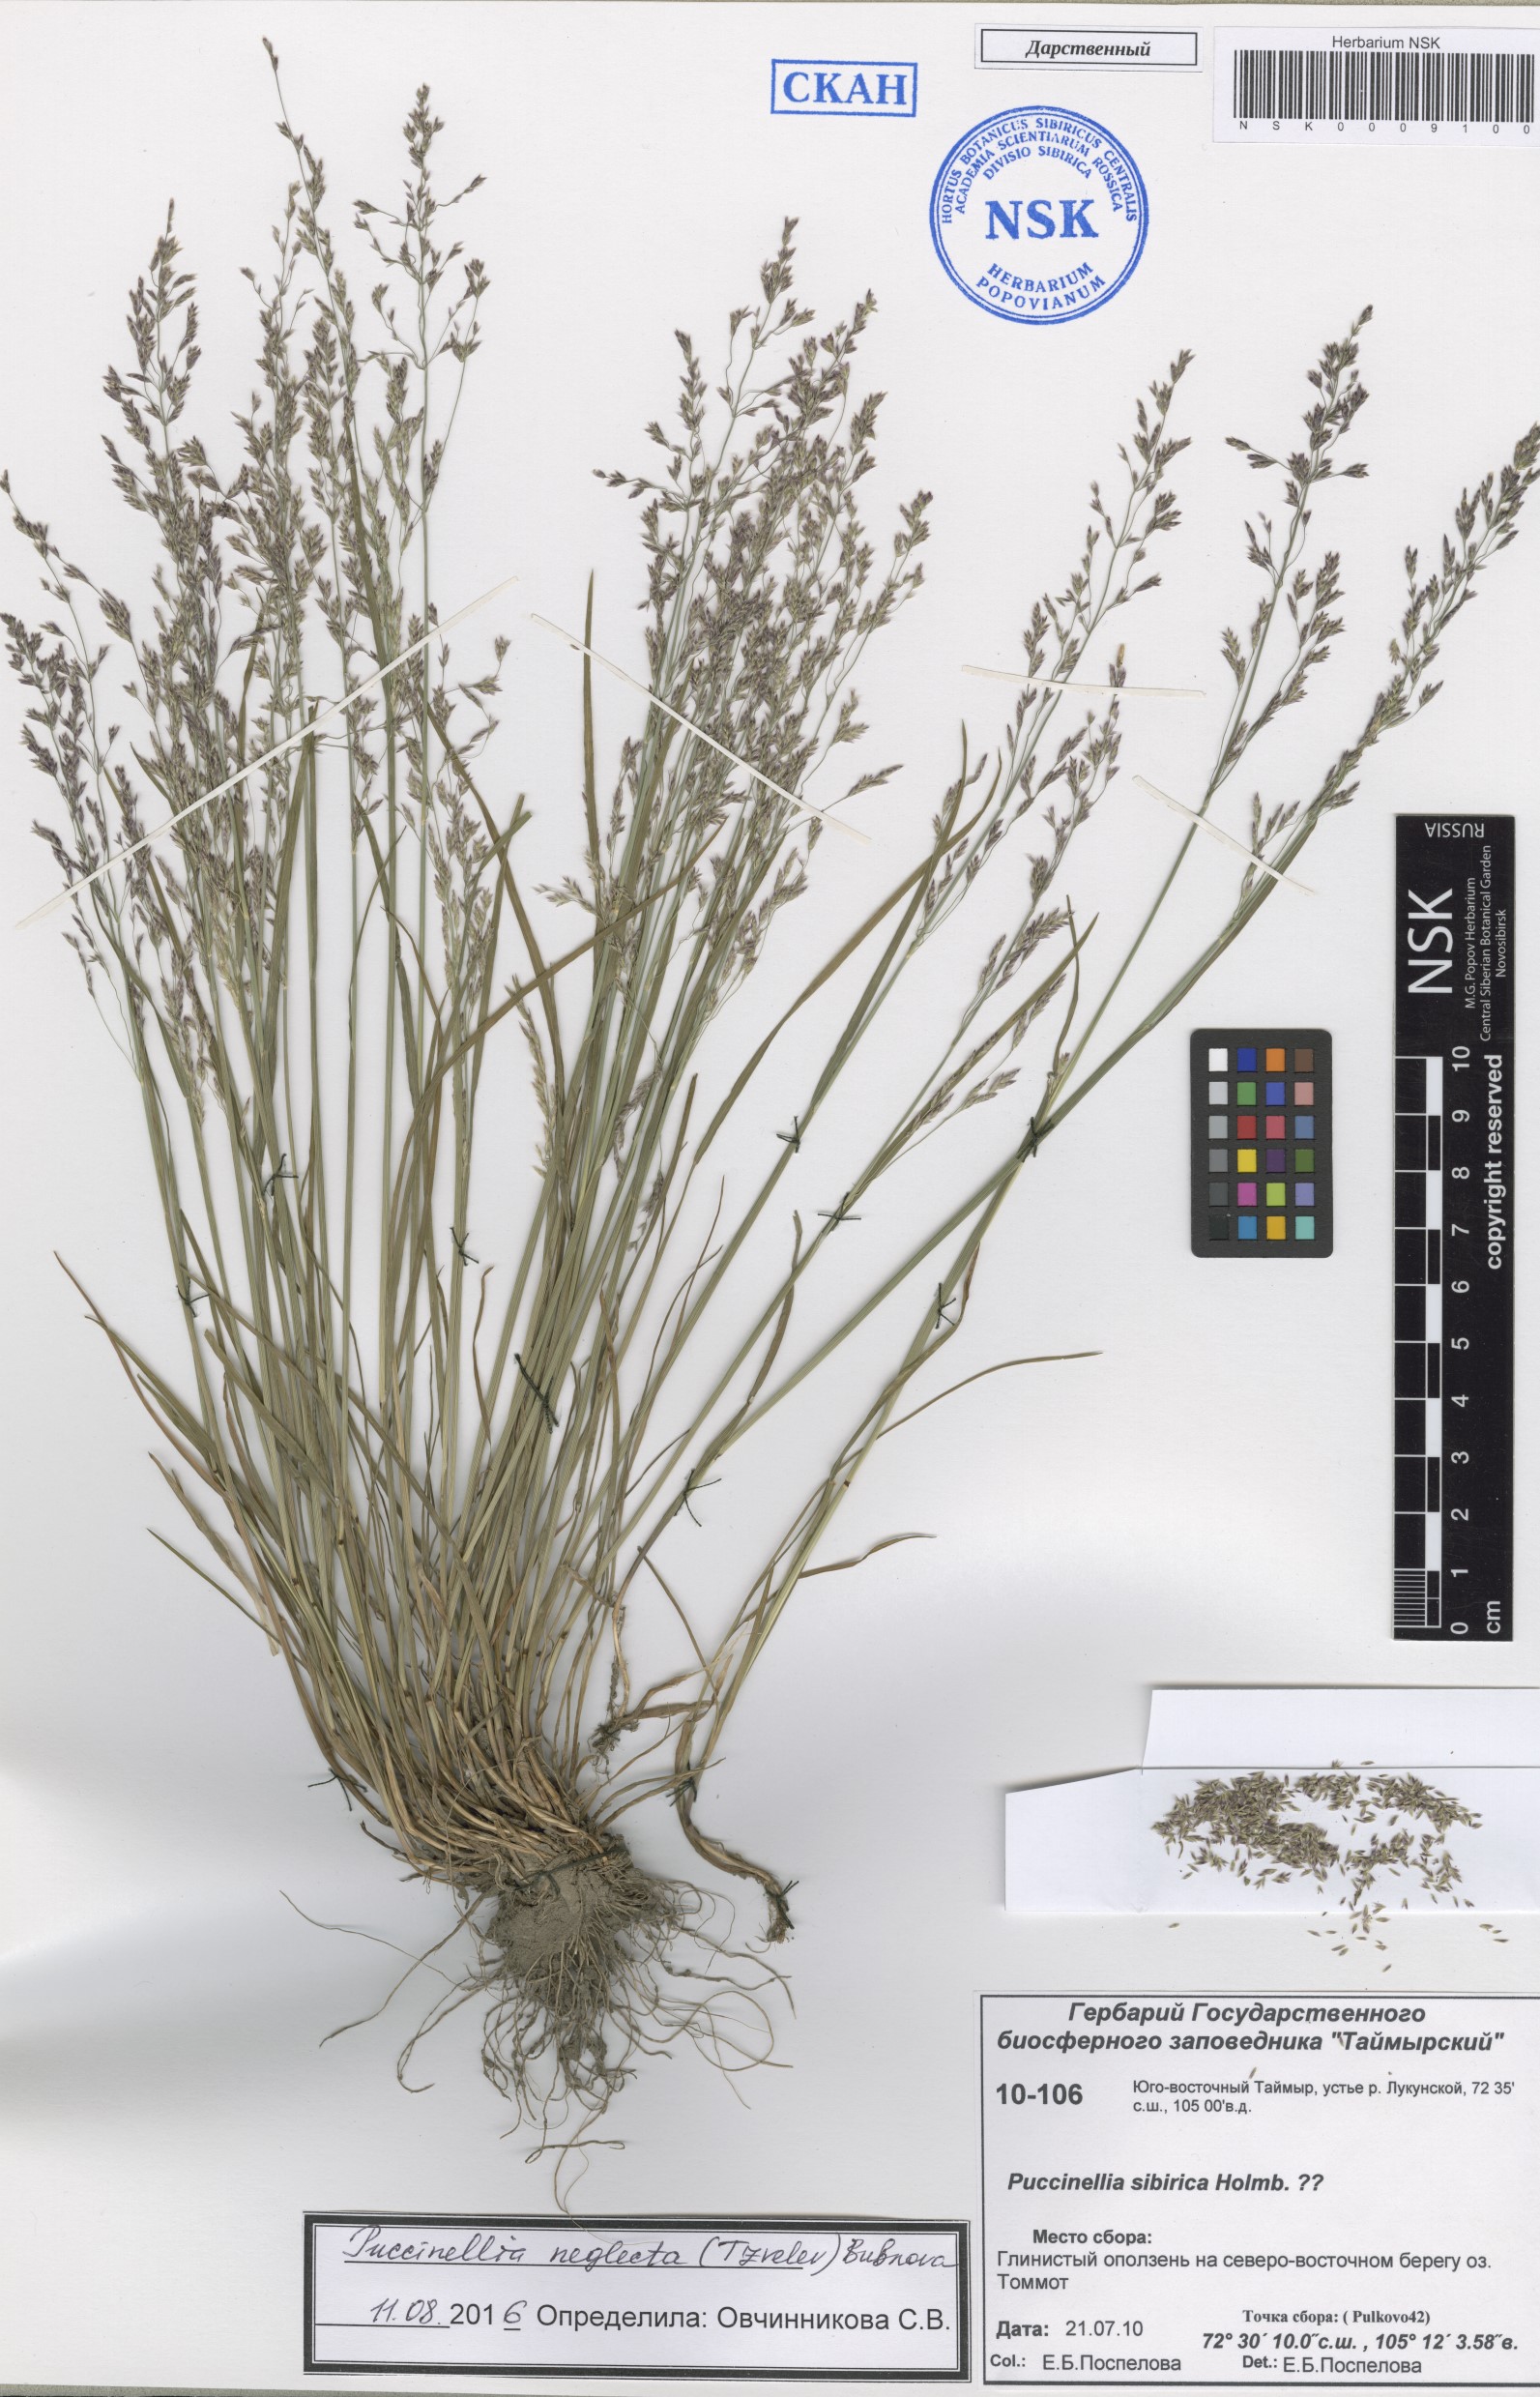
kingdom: Plantae
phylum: Tracheophyta
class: Liliopsida
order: Poales
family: Poaceae
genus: Puccinellia
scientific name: Puccinellia nuttalliana
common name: Nuttall's alkali grass
